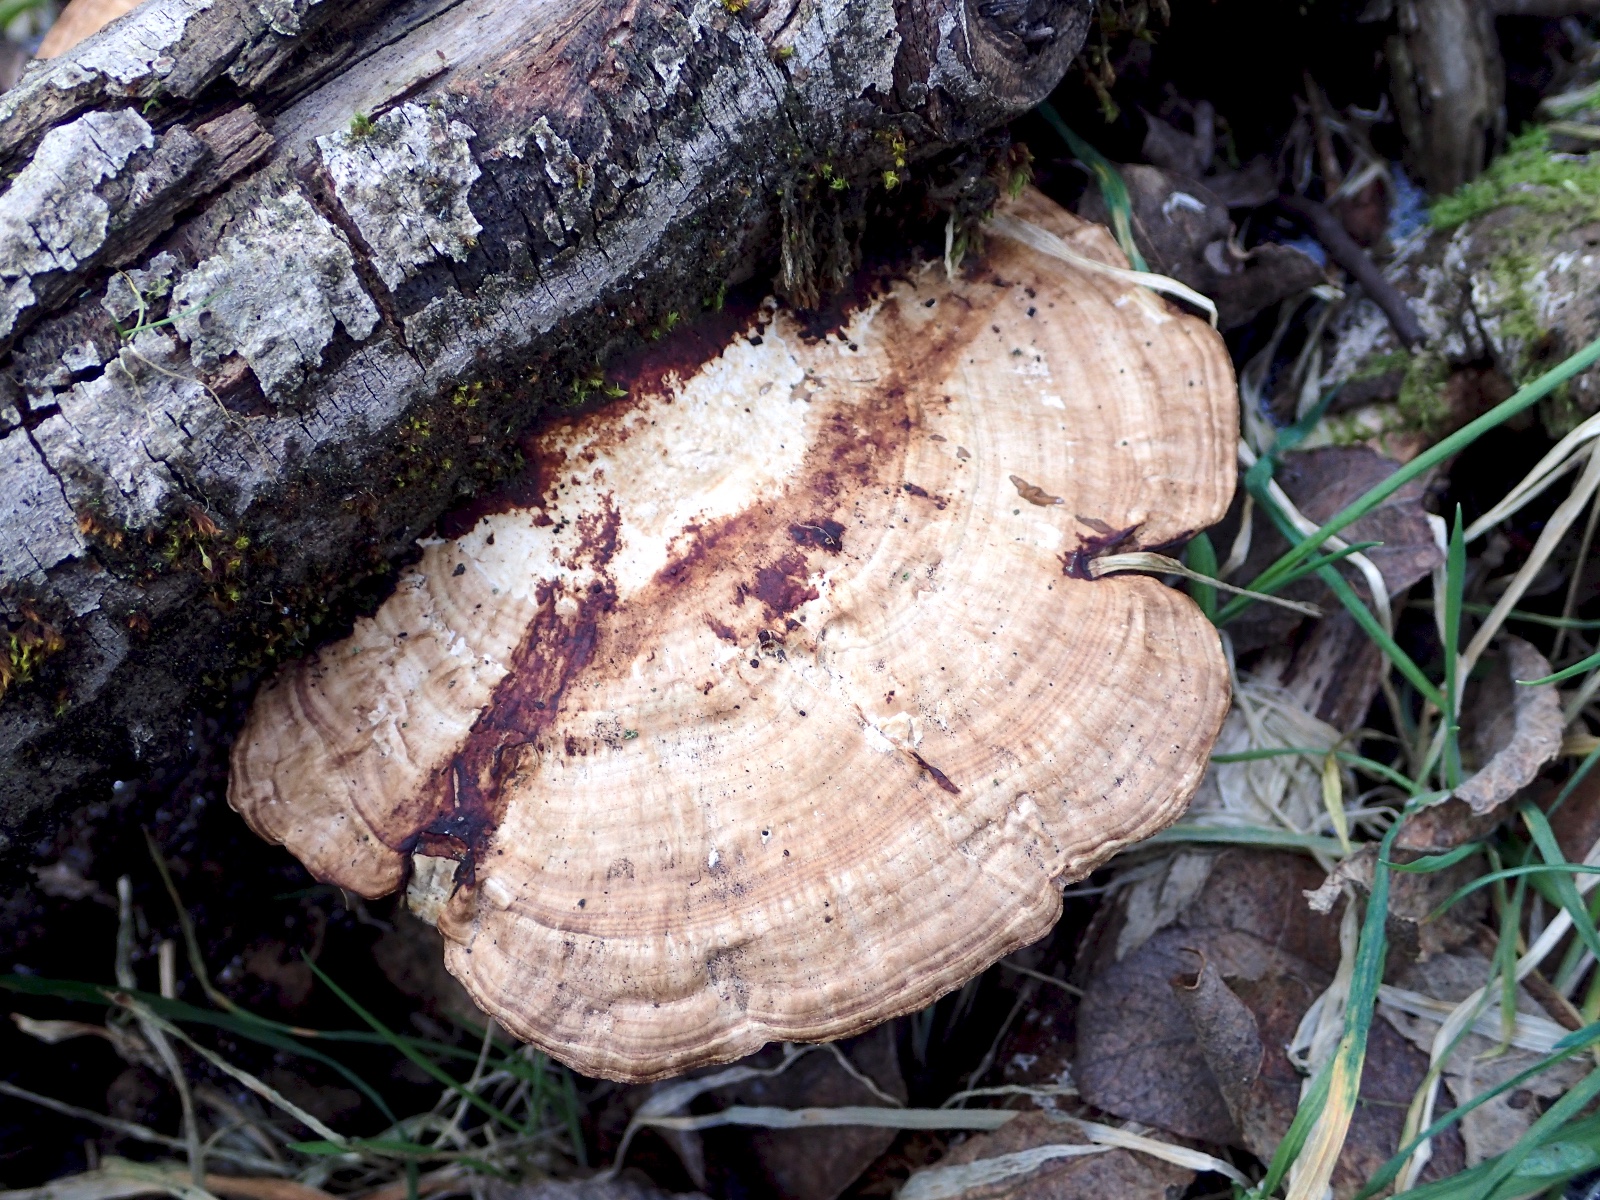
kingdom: Fungi
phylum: Basidiomycota
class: Agaricomycetes
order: Polyporales
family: Polyporaceae
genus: Daedaleopsis
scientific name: Daedaleopsis confragosa
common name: rødmende læderporesvamp
